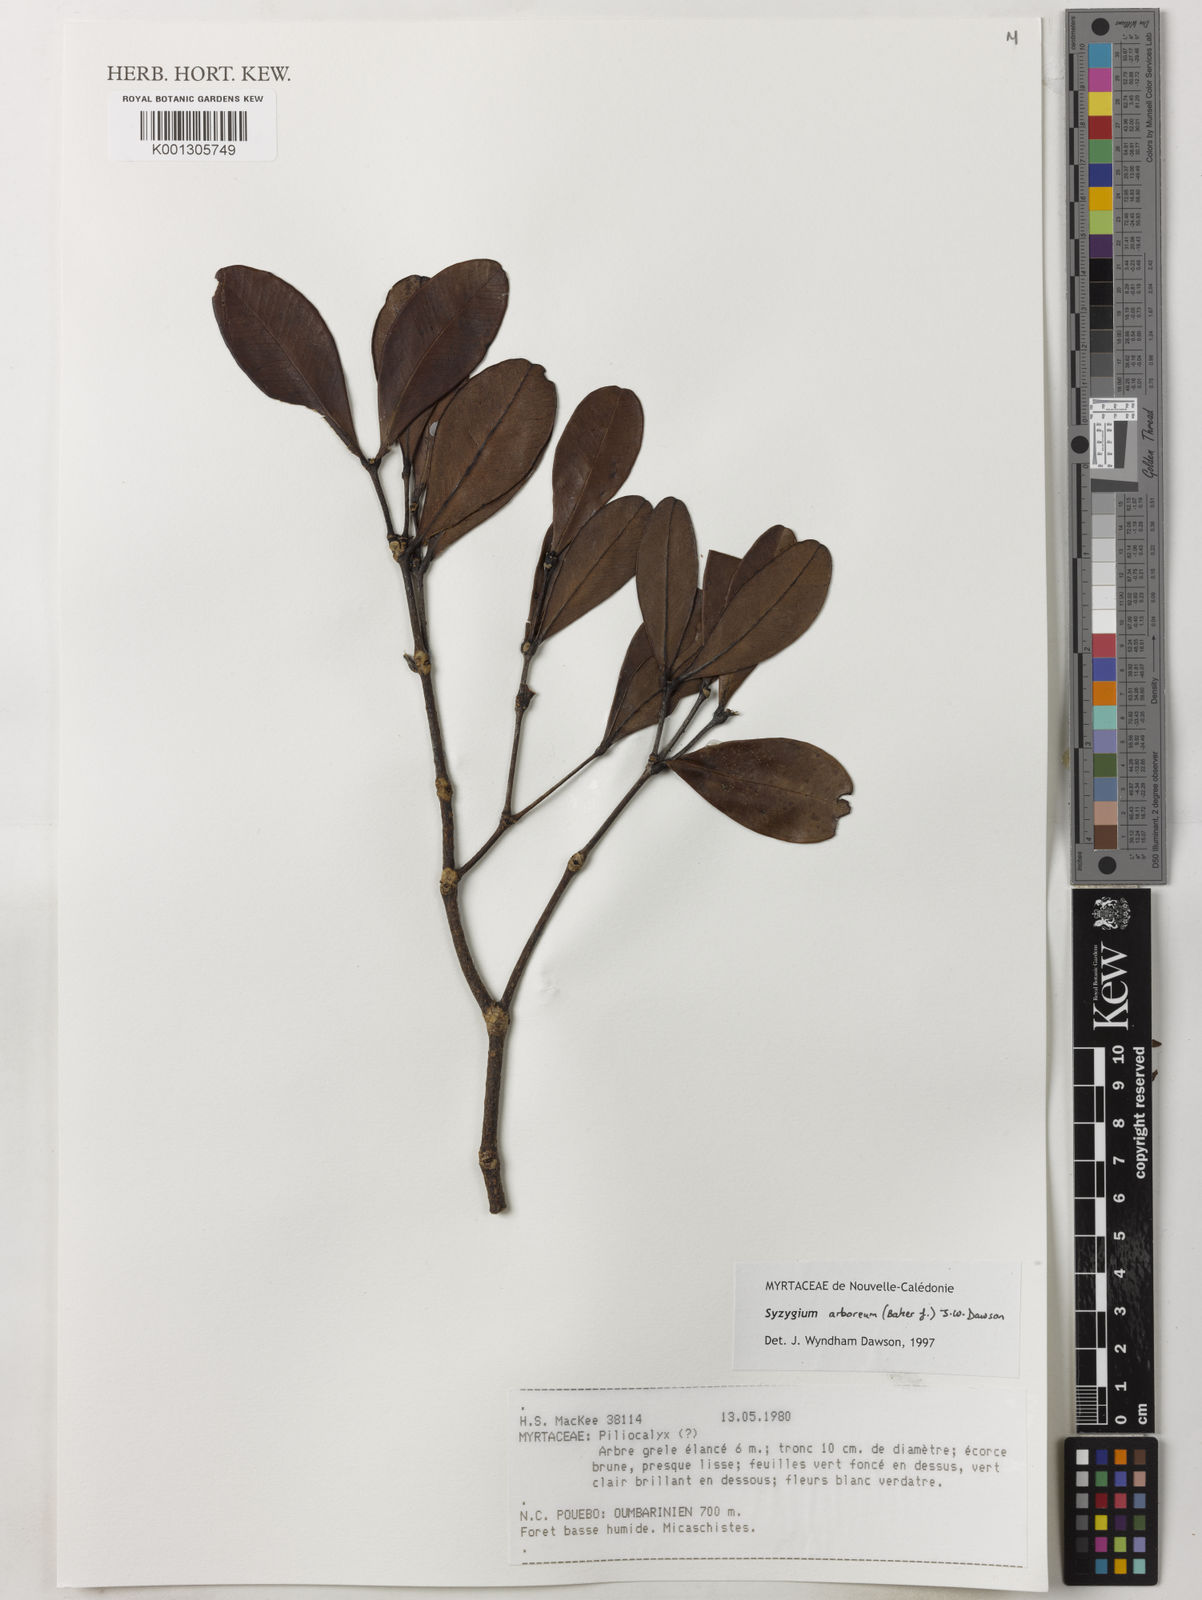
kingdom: Plantae
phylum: Tracheophyta
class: Magnoliopsida
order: Myrtales
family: Myrtaceae
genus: Syzygium
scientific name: Syzygium arboreum
